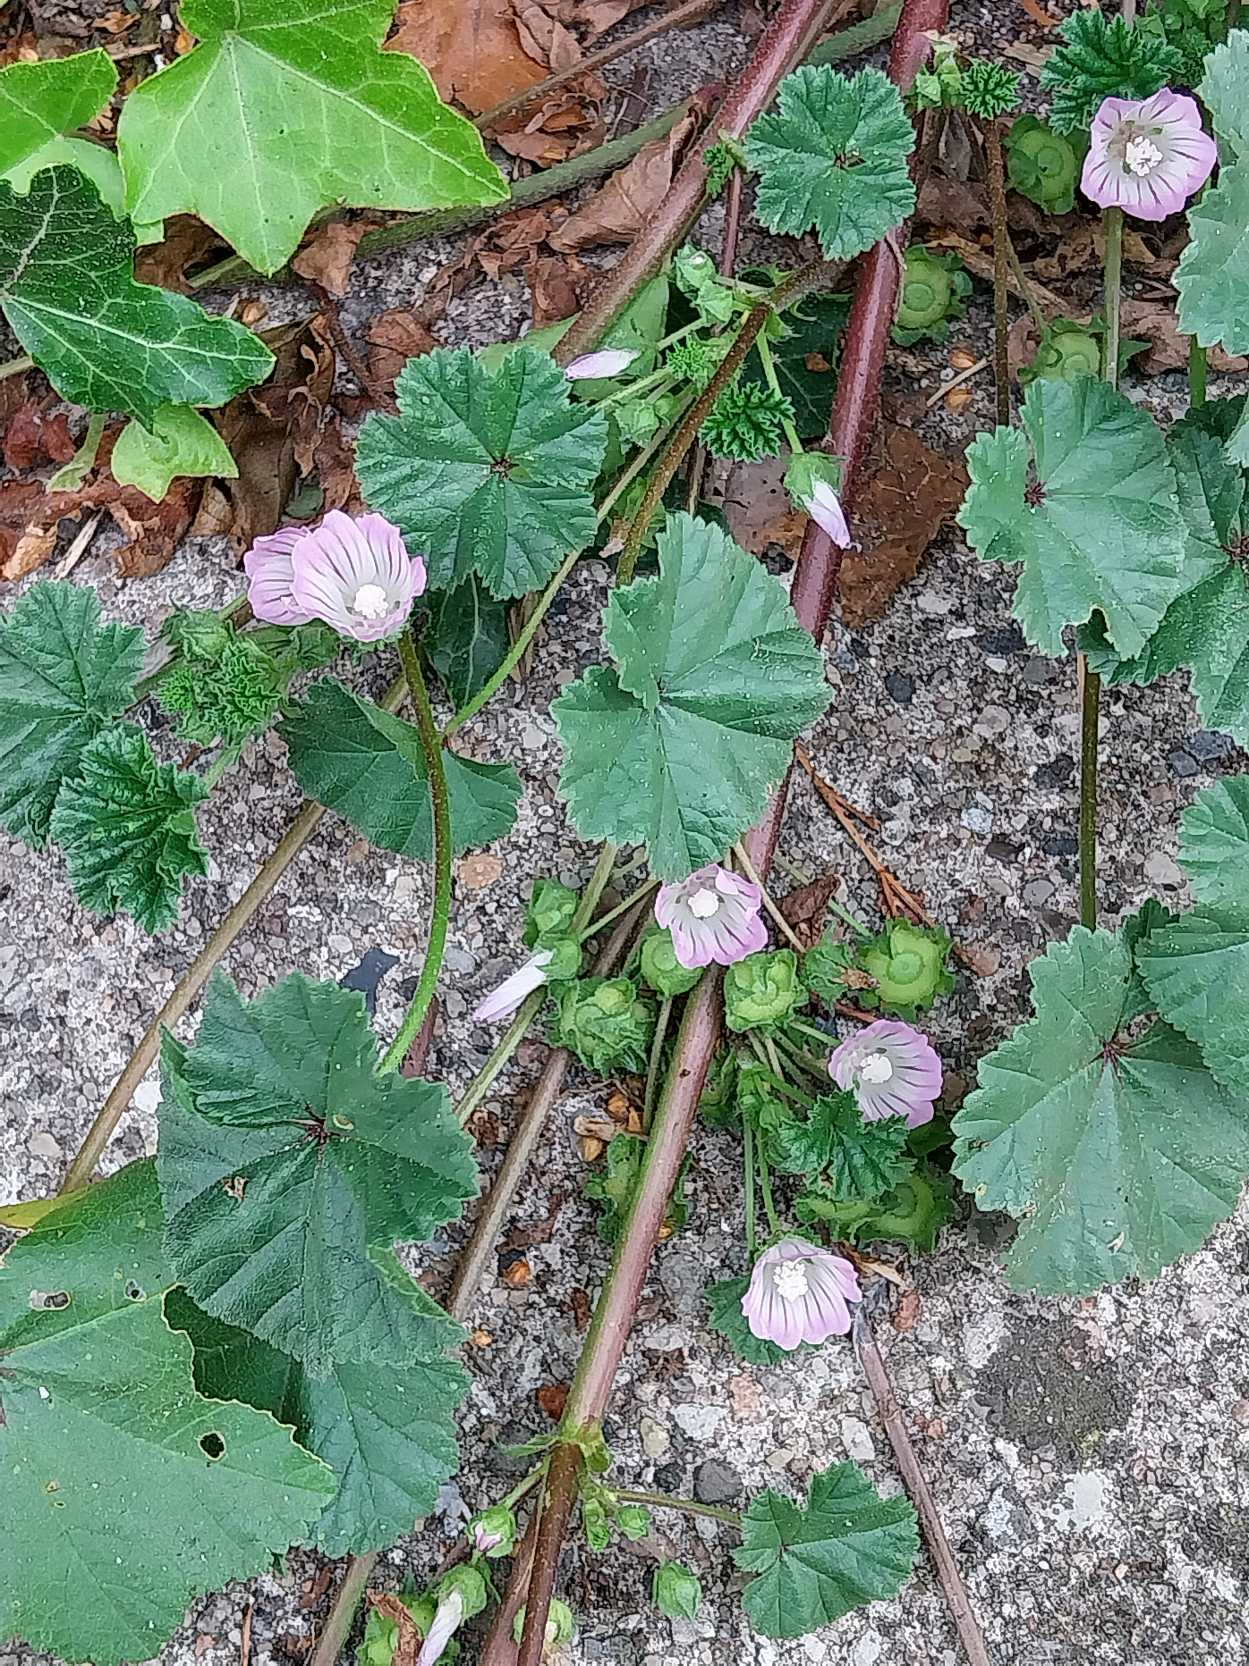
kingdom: Plantae
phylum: Tracheophyta
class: Magnoliopsida
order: Malvales
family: Malvaceae
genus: Malva
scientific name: Malva neglecta
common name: Rundbladet katost
